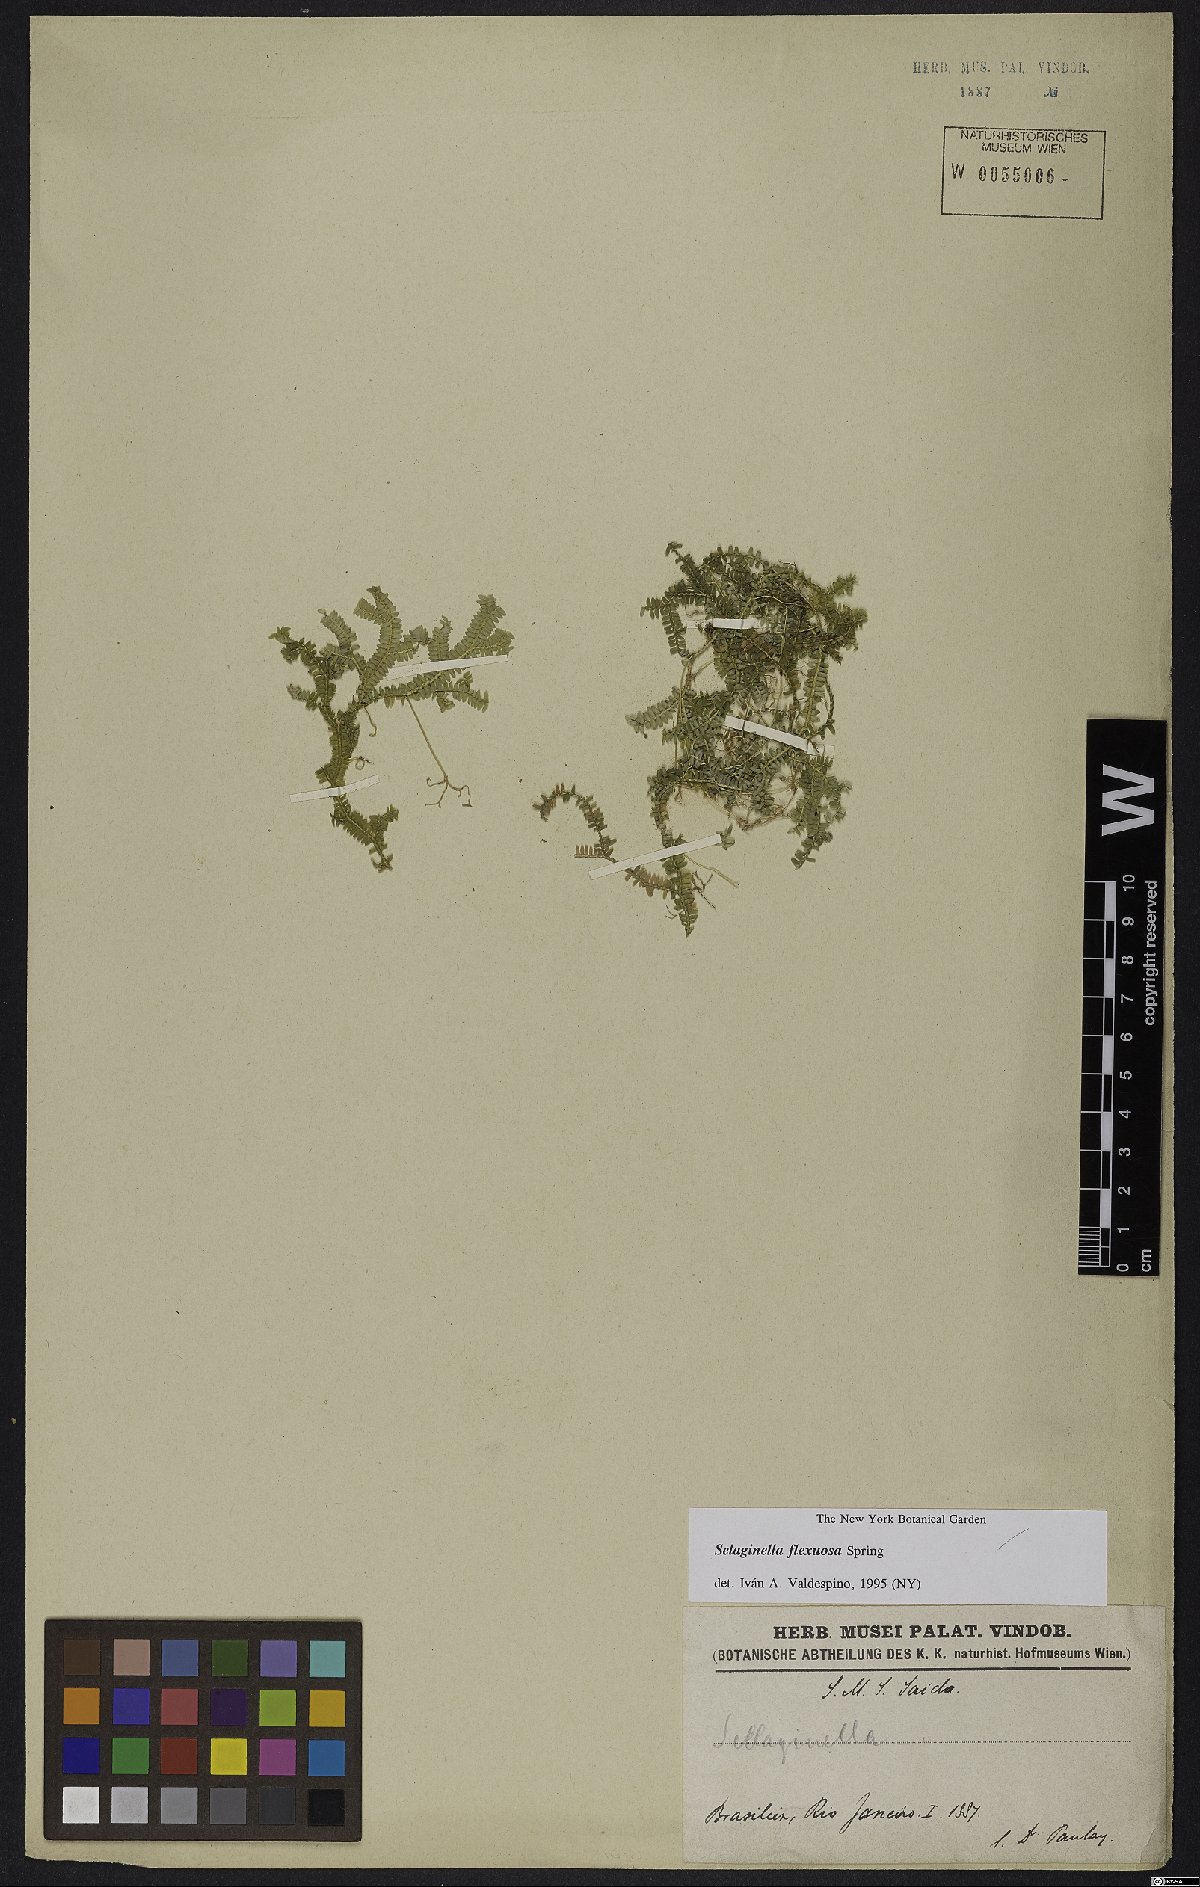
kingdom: Plantae
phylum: Tracheophyta
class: Lycopodiopsida
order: Selaginellales
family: Selaginellaceae
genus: Selaginella
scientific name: Selaginella flexuosa
